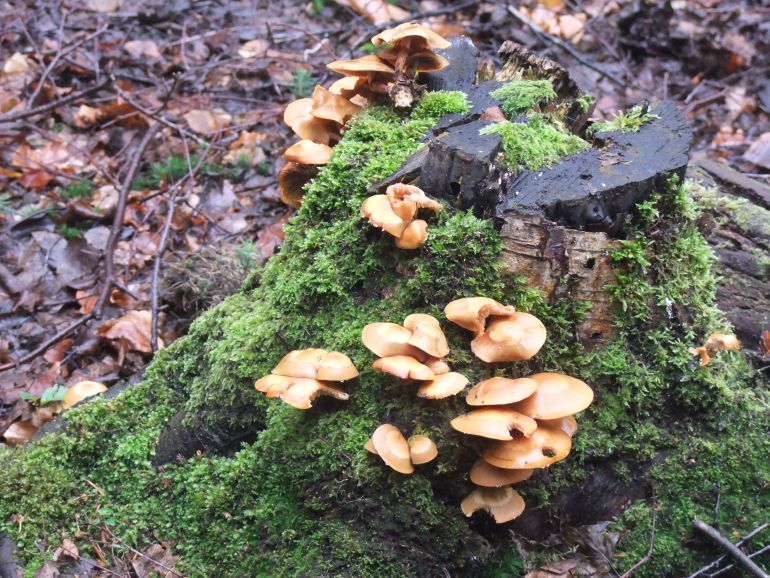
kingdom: Fungi
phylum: Basidiomycota
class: Agaricomycetes
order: Agaricales
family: Strophariaceae
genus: Kuehneromyces
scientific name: Kuehneromyces mutabilis
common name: foranderlig skælhat
